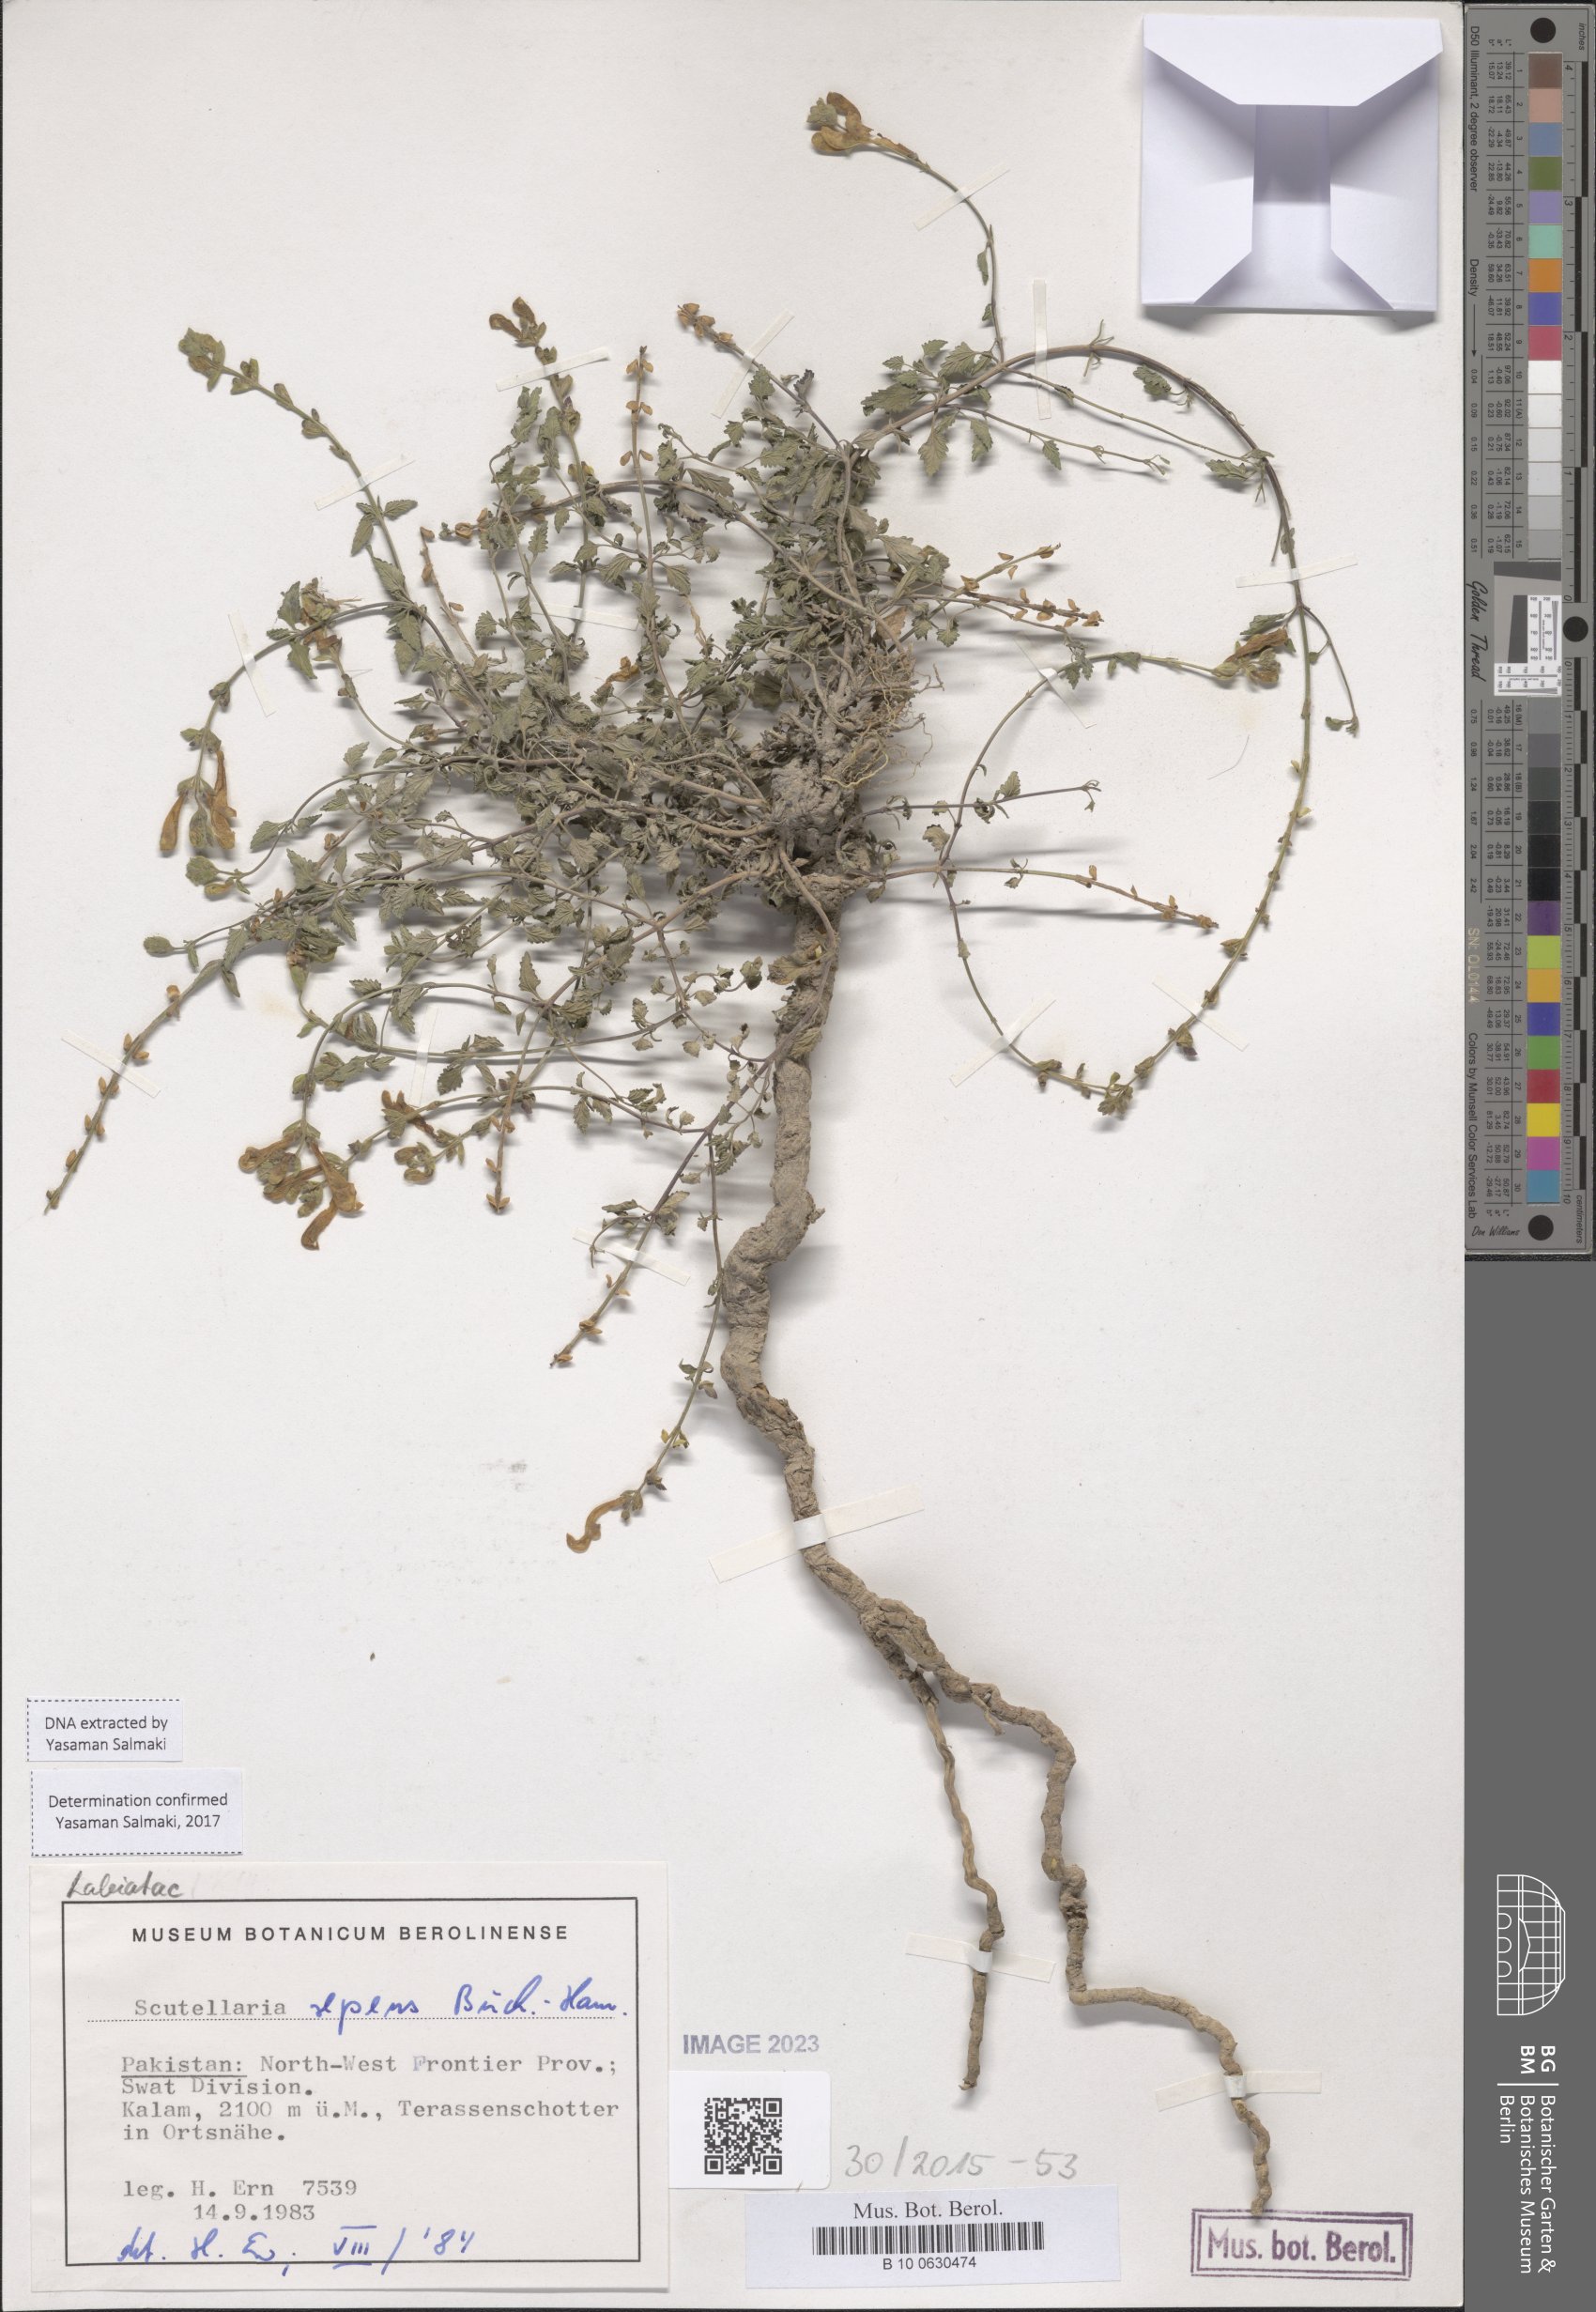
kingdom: Plantae
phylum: Tracheophyta
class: Magnoliopsida
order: Lamiales
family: Lamiaceae
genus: Scutellaria
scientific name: Scutellaria repens
